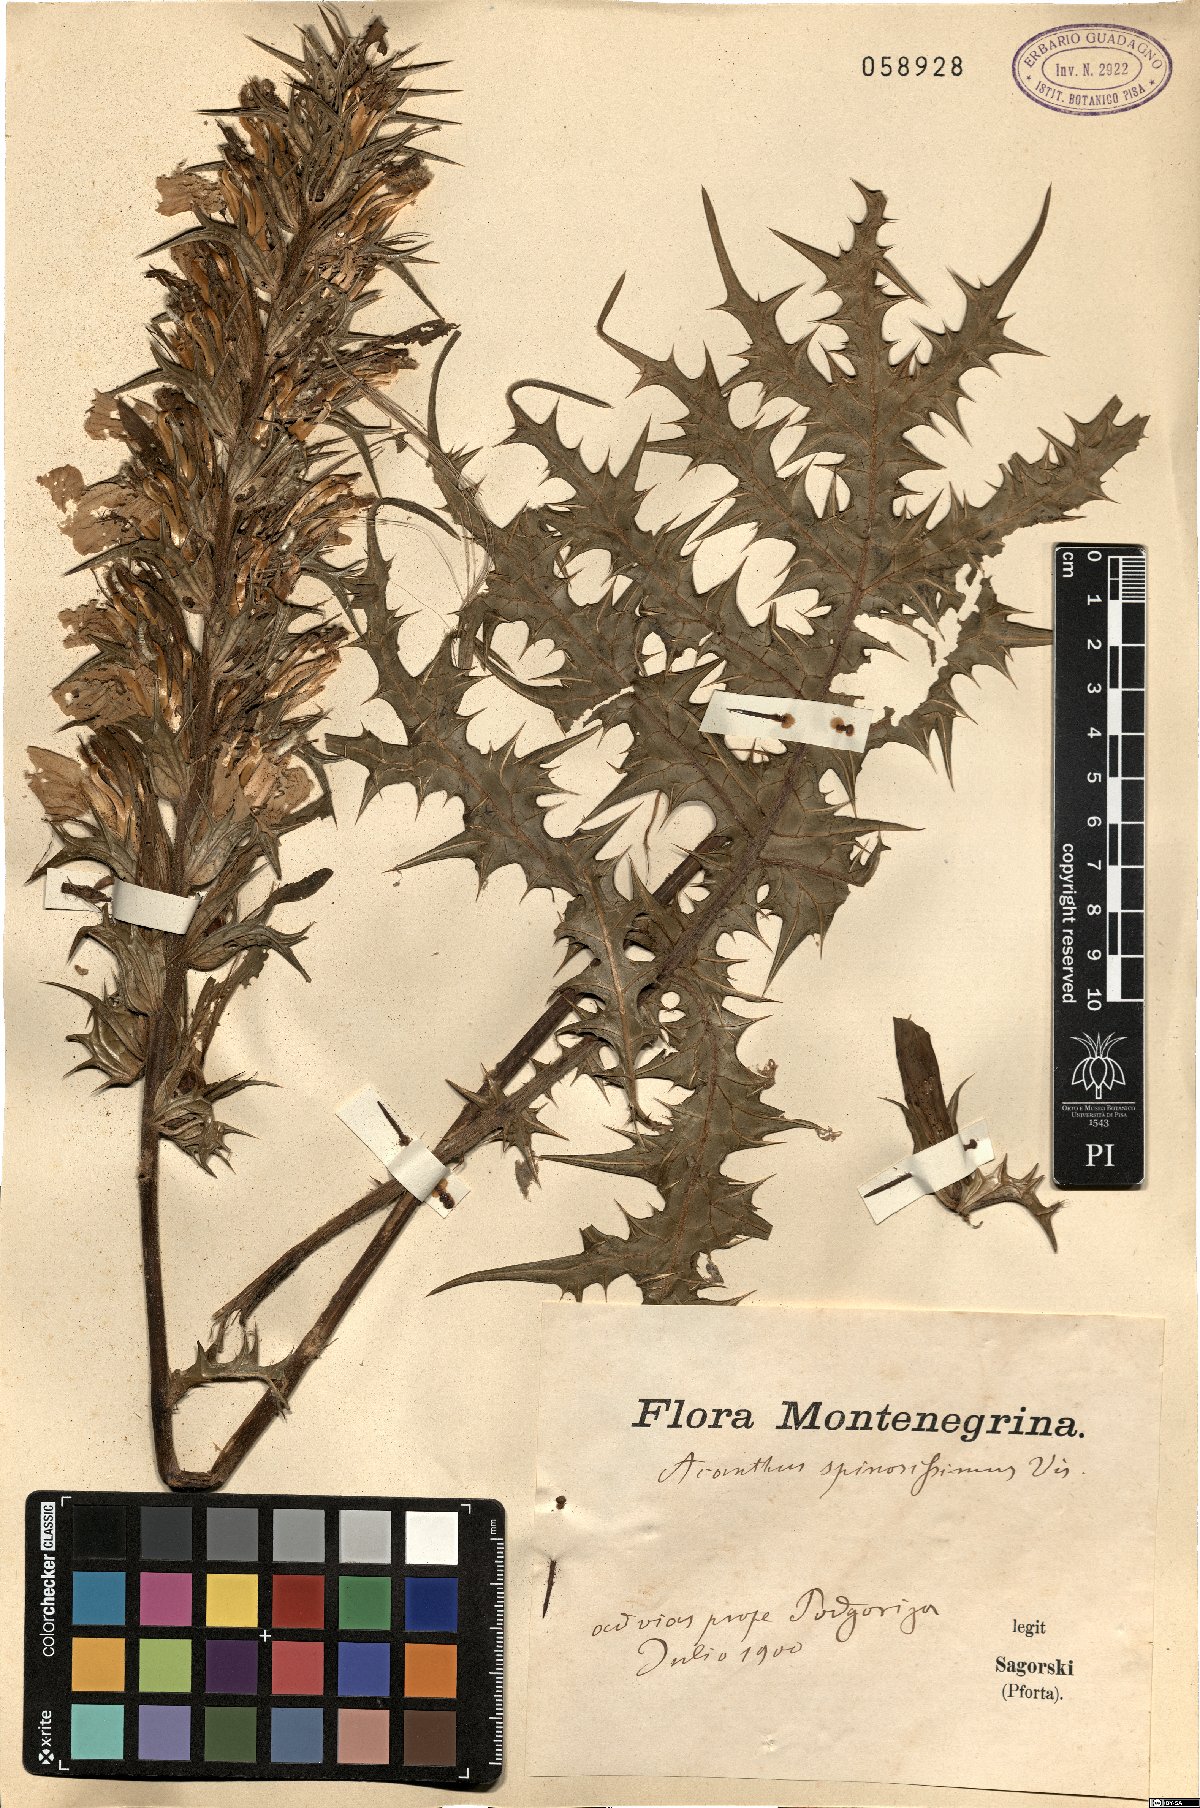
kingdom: Plantae
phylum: Tracheophyta
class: Magnoliopsida
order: Lamiales
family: Acanthaceae
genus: Acanthus
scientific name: Acanthus spinosus
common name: Spiny bear's-breech
